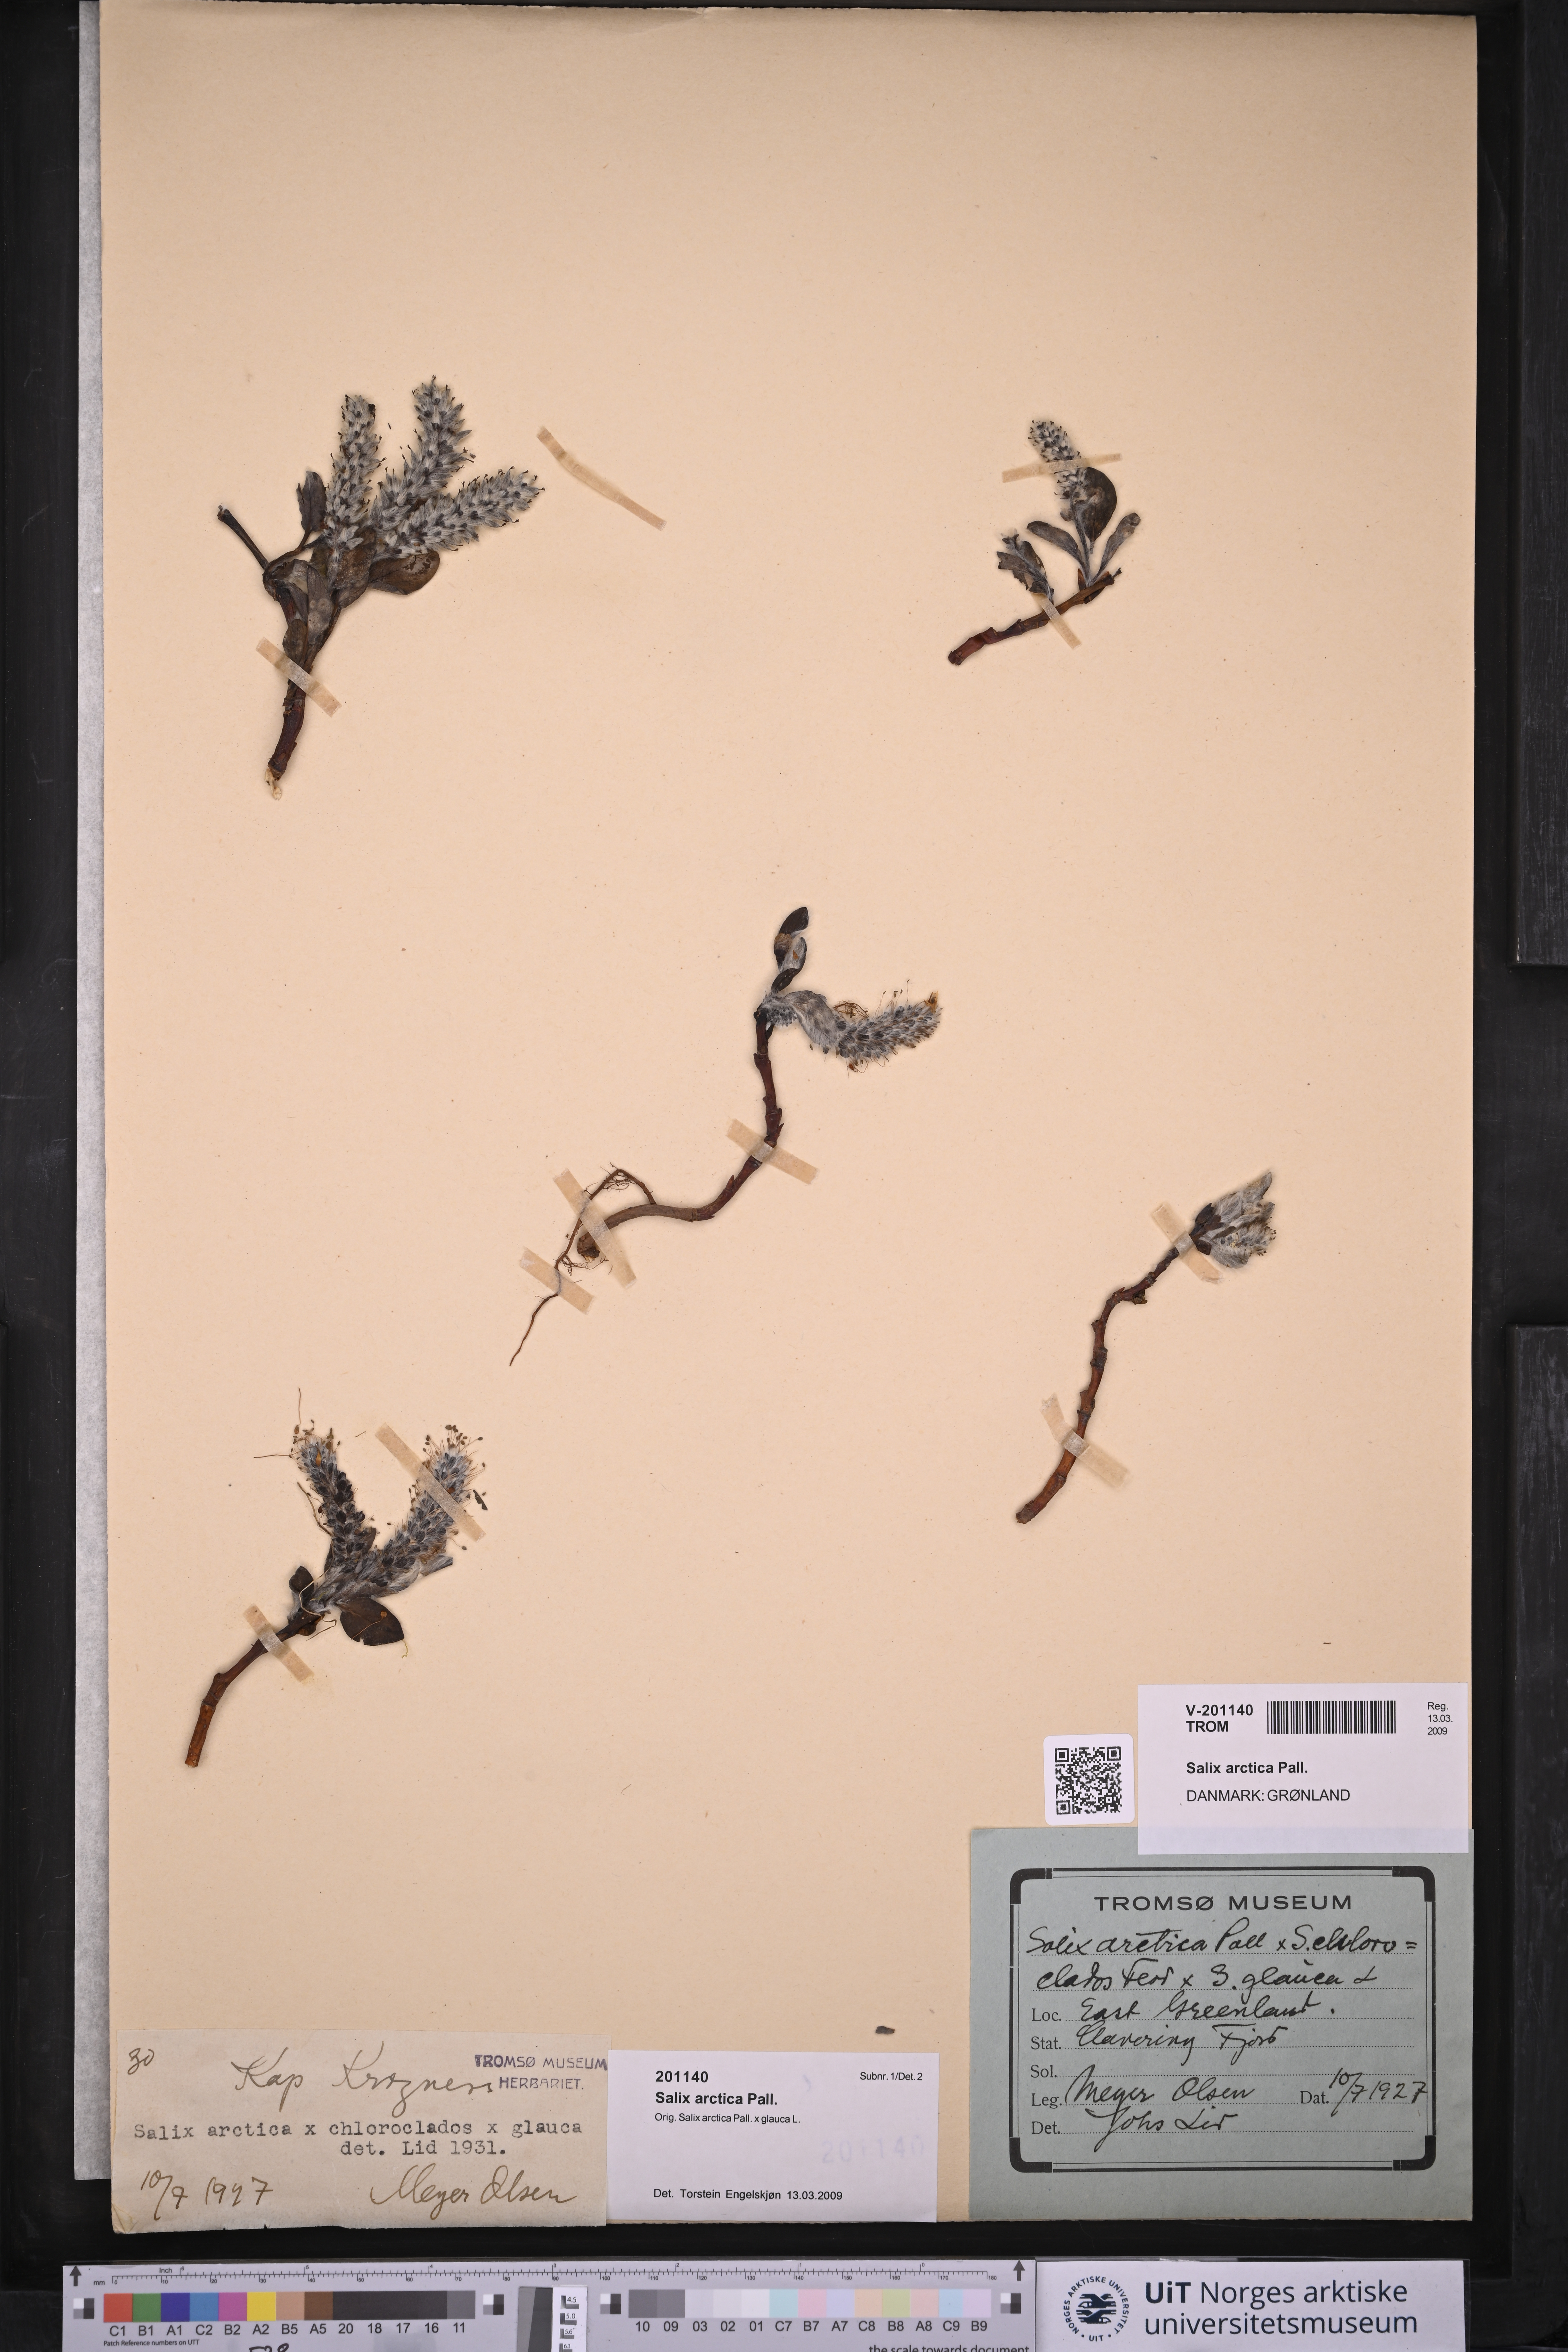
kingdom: Plantae
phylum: Tracheophyta
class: Magnoliopsida
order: Malpighiales
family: Salicaceae
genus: Salix
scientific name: Salix arctica
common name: Arctic willow
